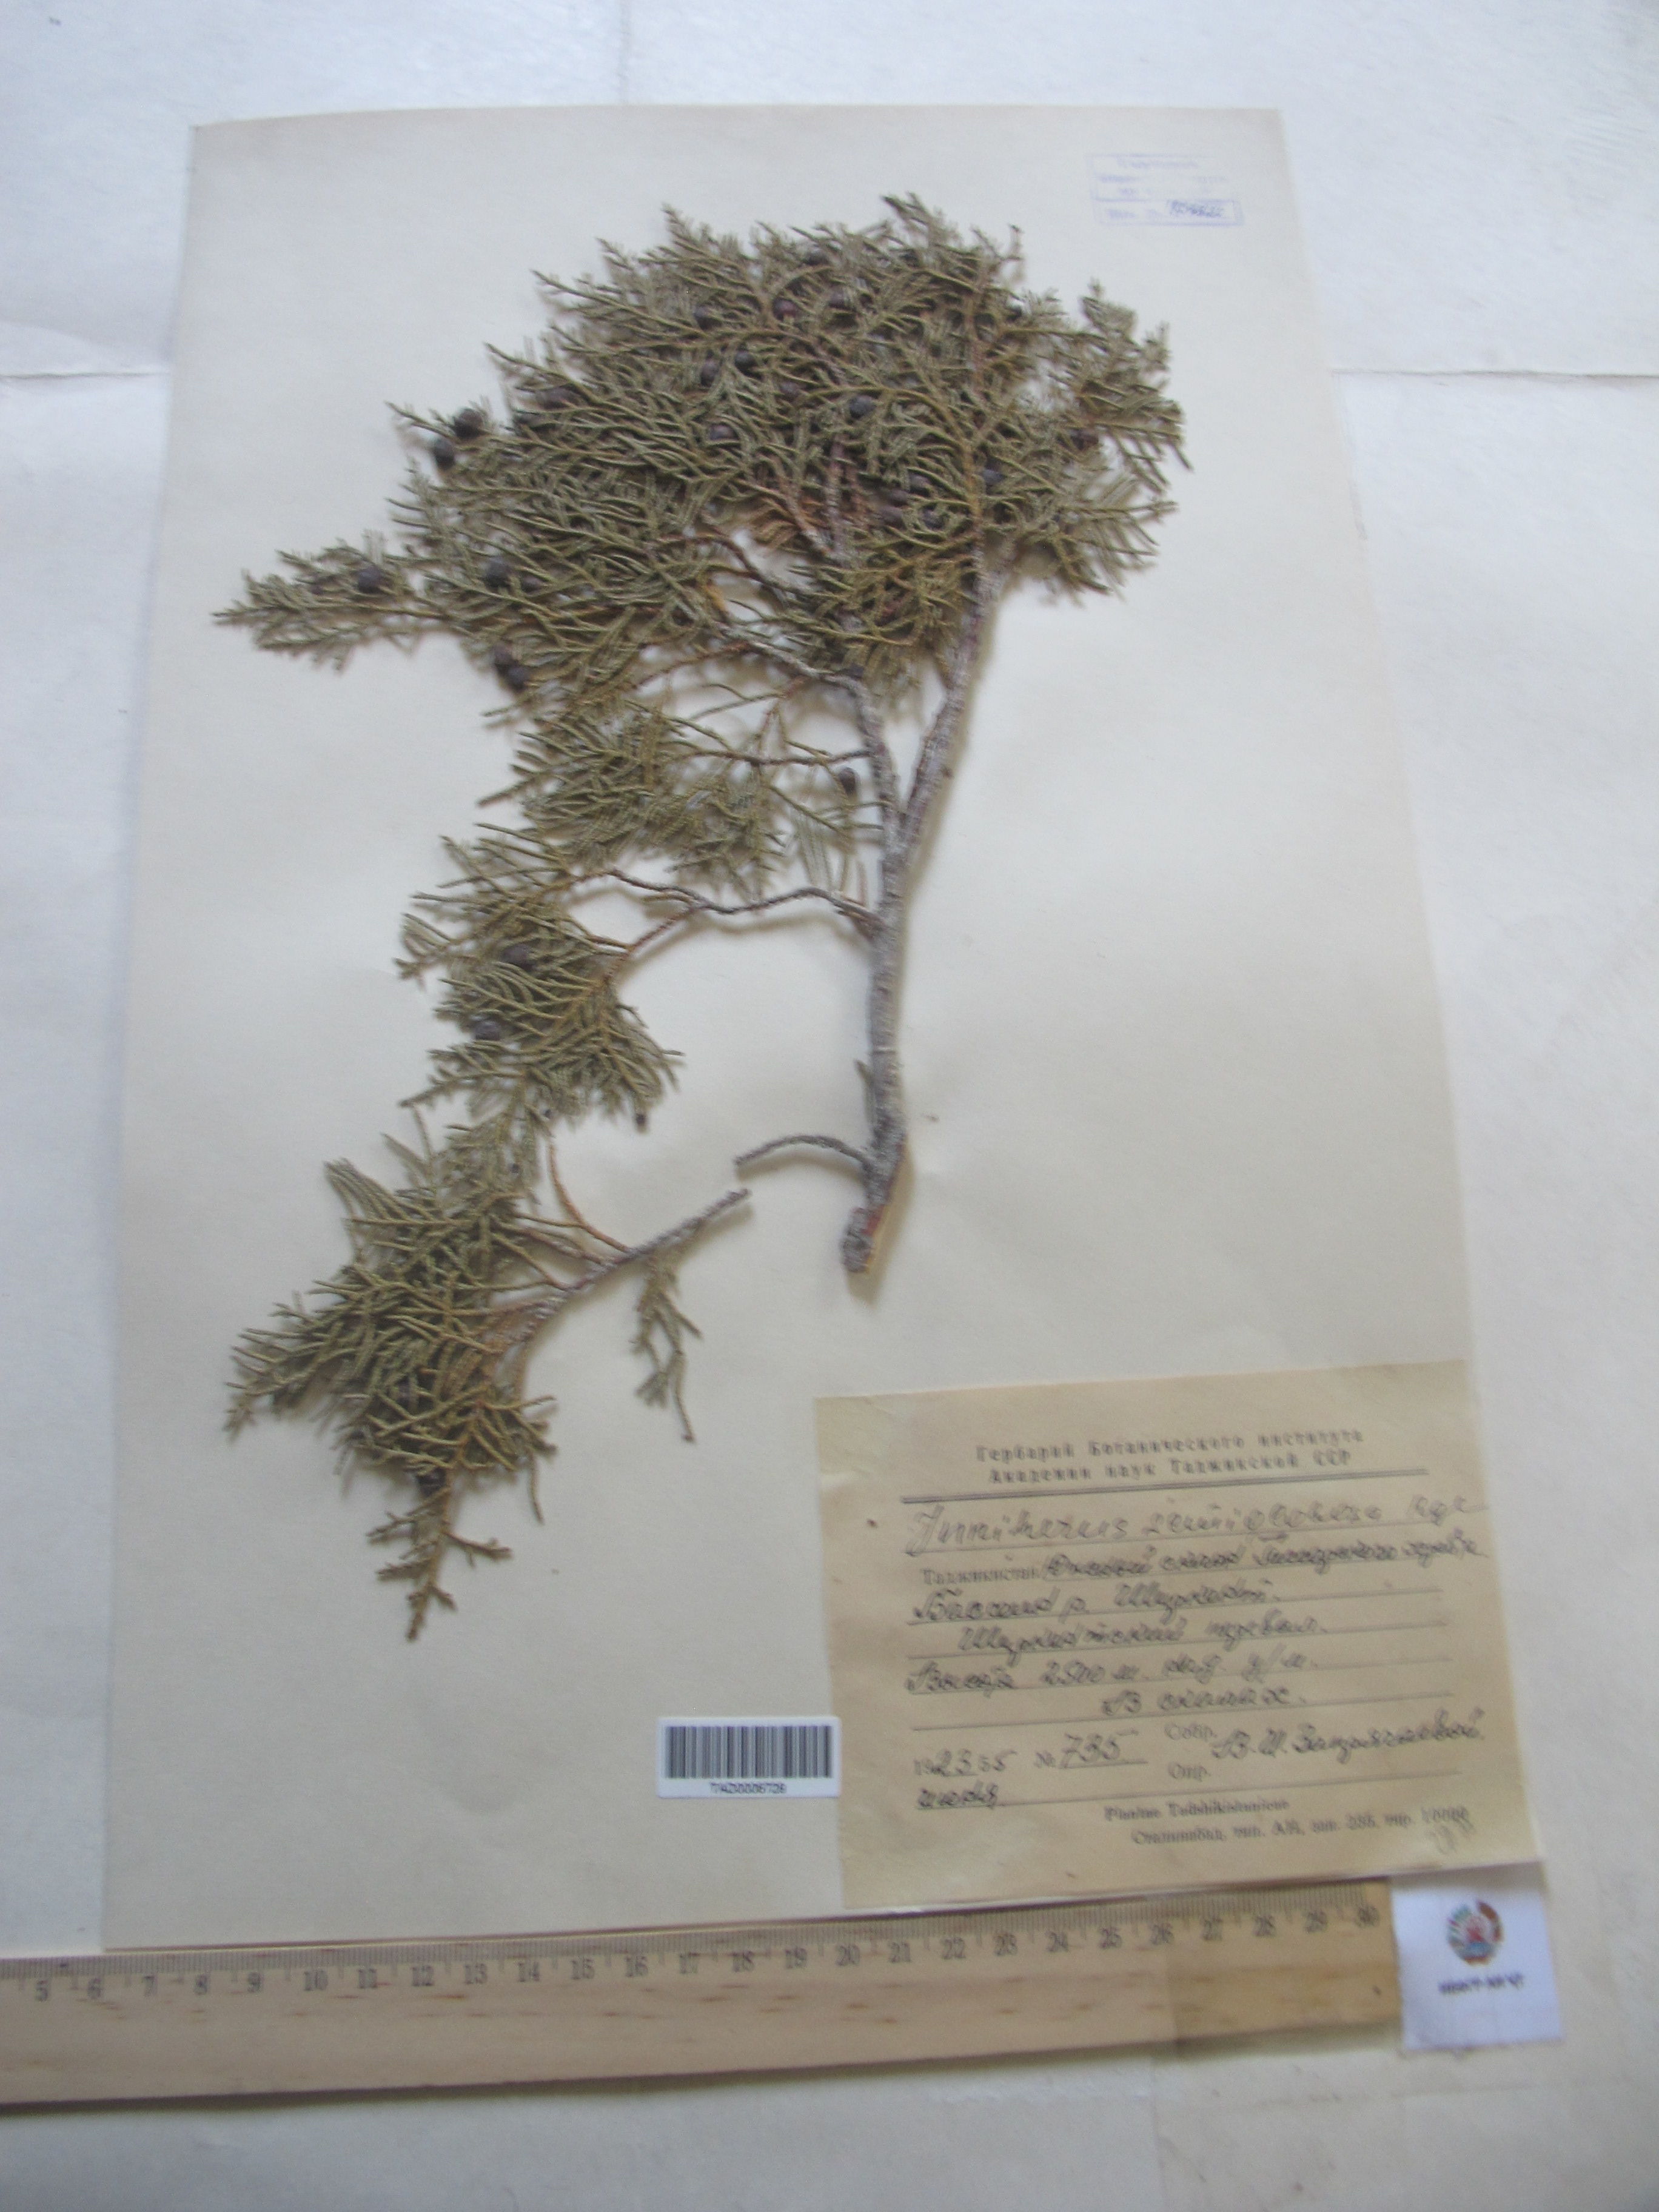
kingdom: Plantae
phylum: Tracheophyta
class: Pinopsida
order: Pinales
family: Cupressaceae
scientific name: Cupressaceae
